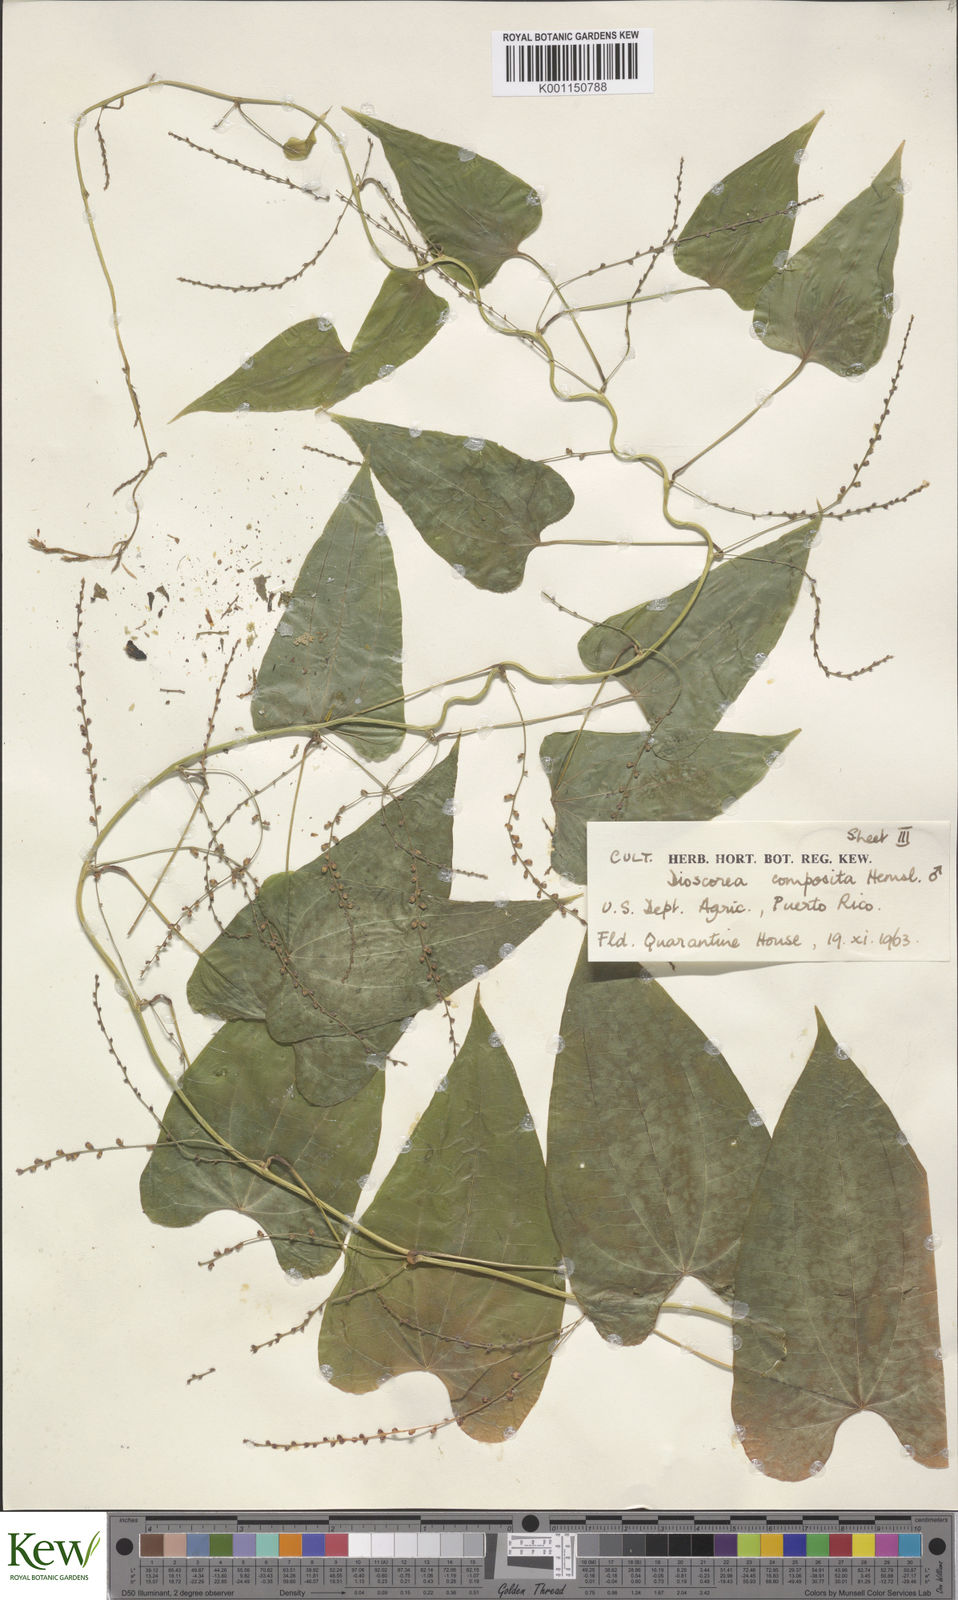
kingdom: Plantae
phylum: Tracheophyta
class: Liliopsida
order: Dioscoreales
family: Dioscoreaceae
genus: Dioscorea
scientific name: Dioscorea composita
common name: Barbasco
